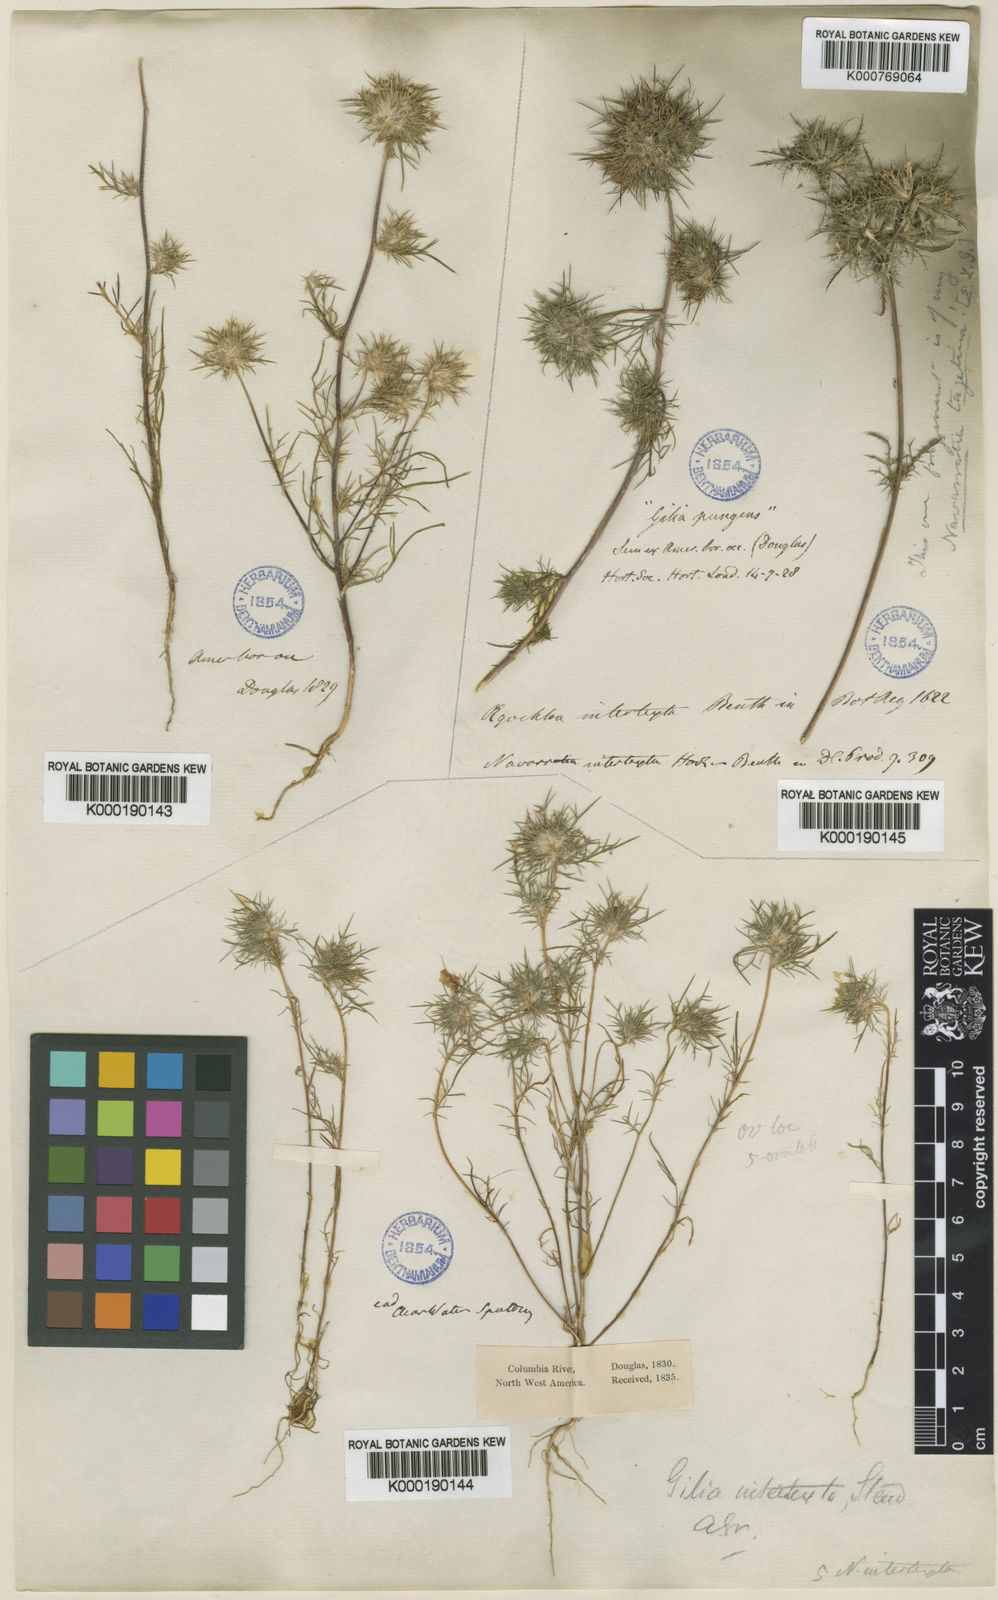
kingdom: Plantae
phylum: Tracheophyta
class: Magnoliopsida
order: Ericales
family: Polemoniaceae
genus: Navarretia
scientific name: Navarretia intertexta
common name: Needle-leaved navarretia
